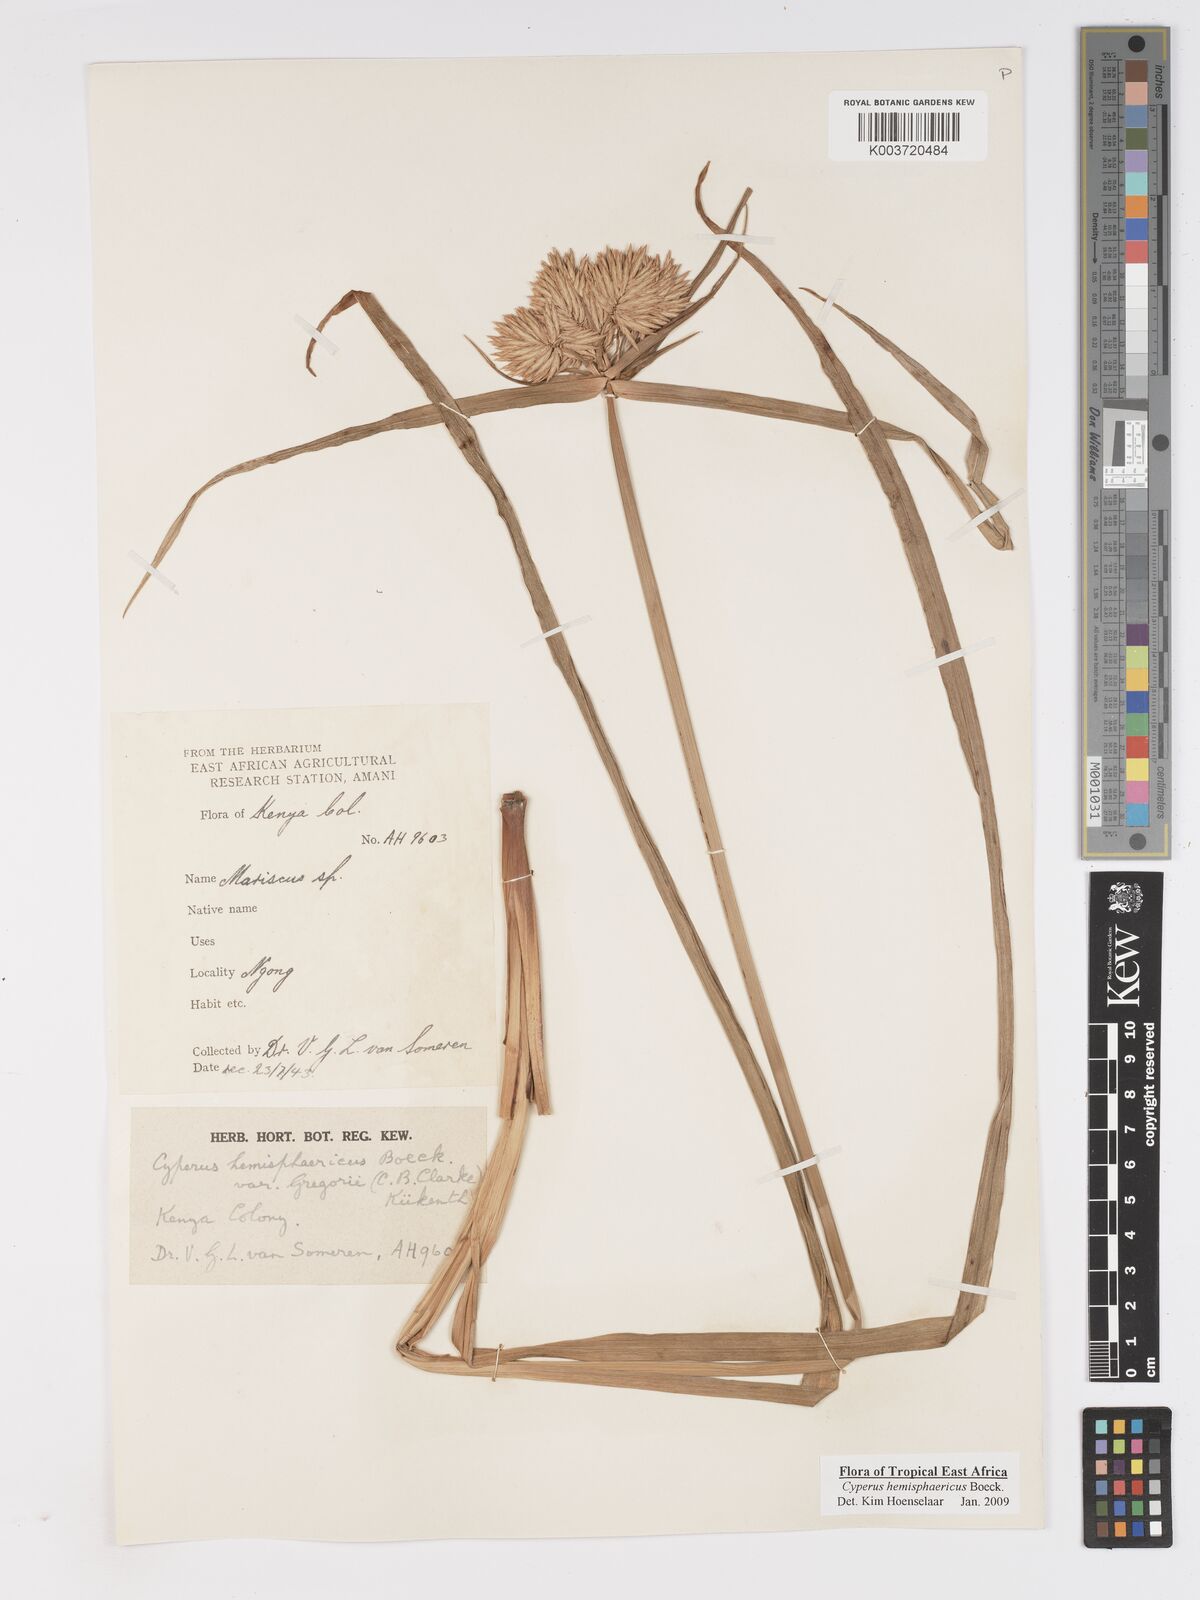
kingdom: Plantae
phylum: Tracheophyta
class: Liliopsida
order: Poales
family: Cyperaceae
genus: Cyperus
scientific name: Cyperus hemisphaericus
